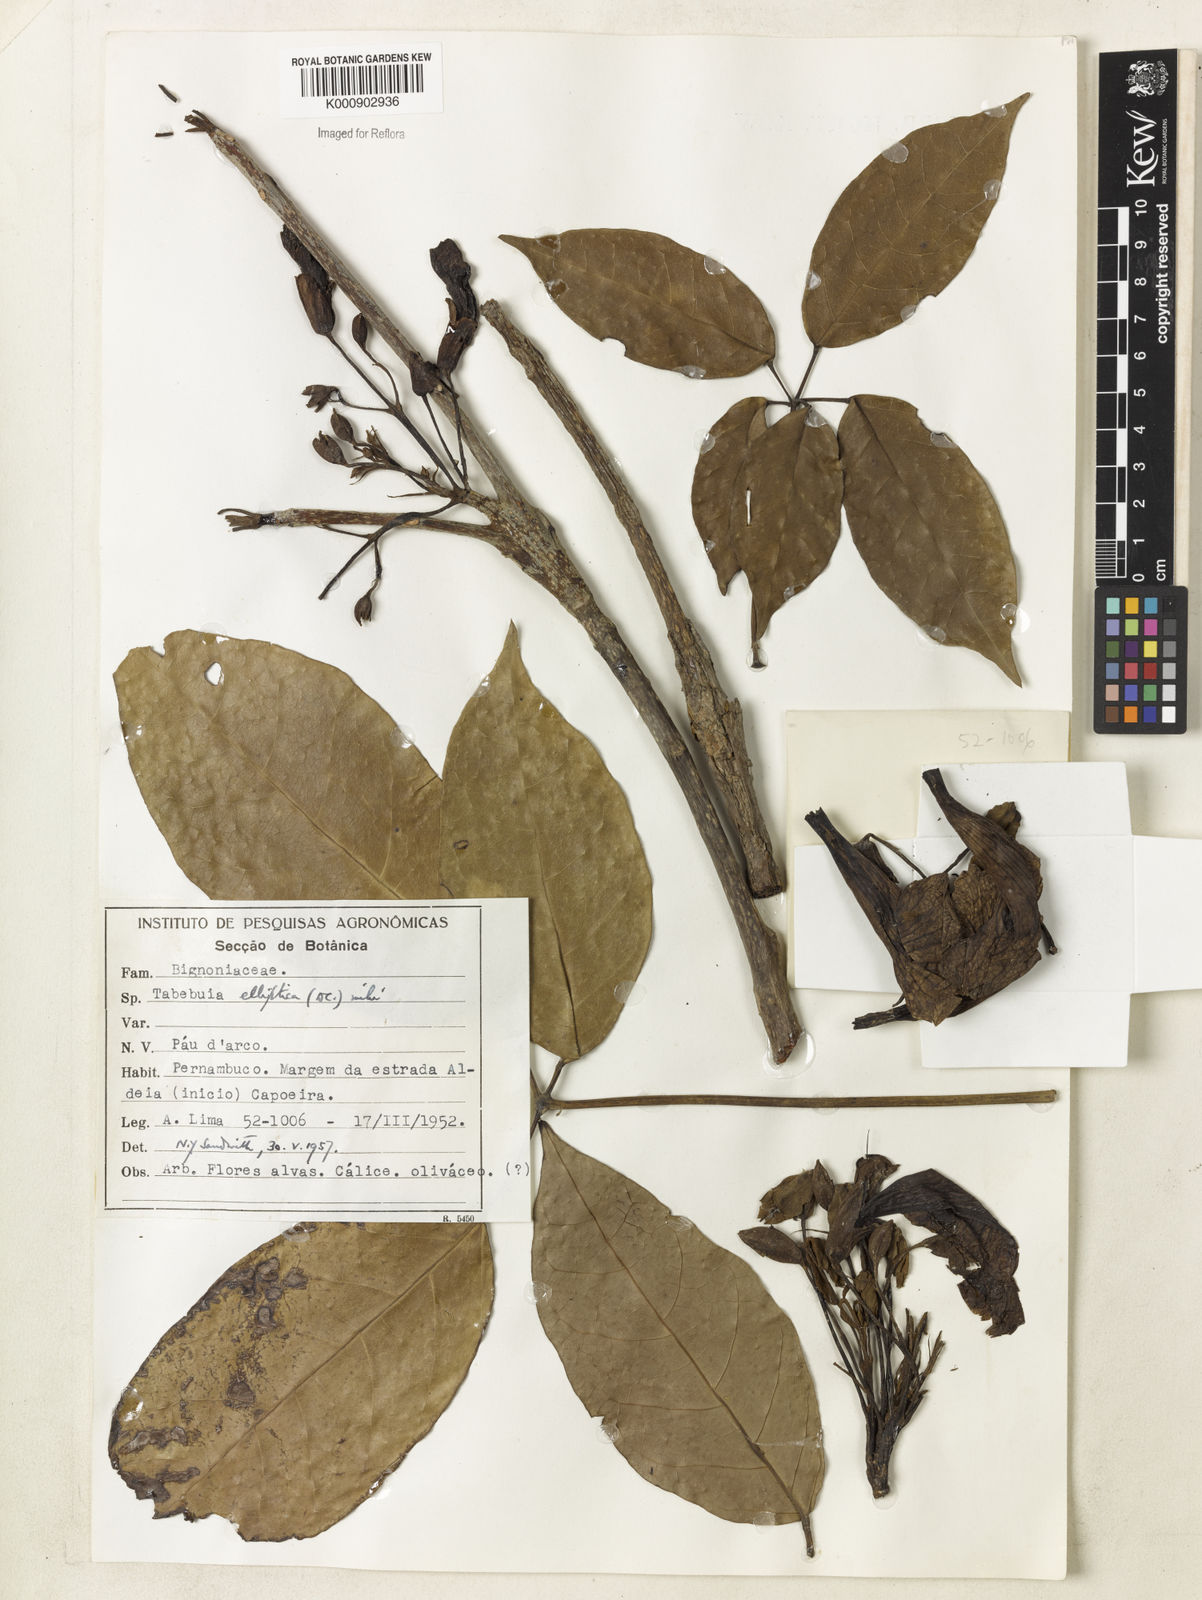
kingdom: Plantae
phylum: Tracheophyta
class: Magnoliopsida
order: Lamiales
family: Bignoniaceae
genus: Tabebuia
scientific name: Tabebuia elliptica
